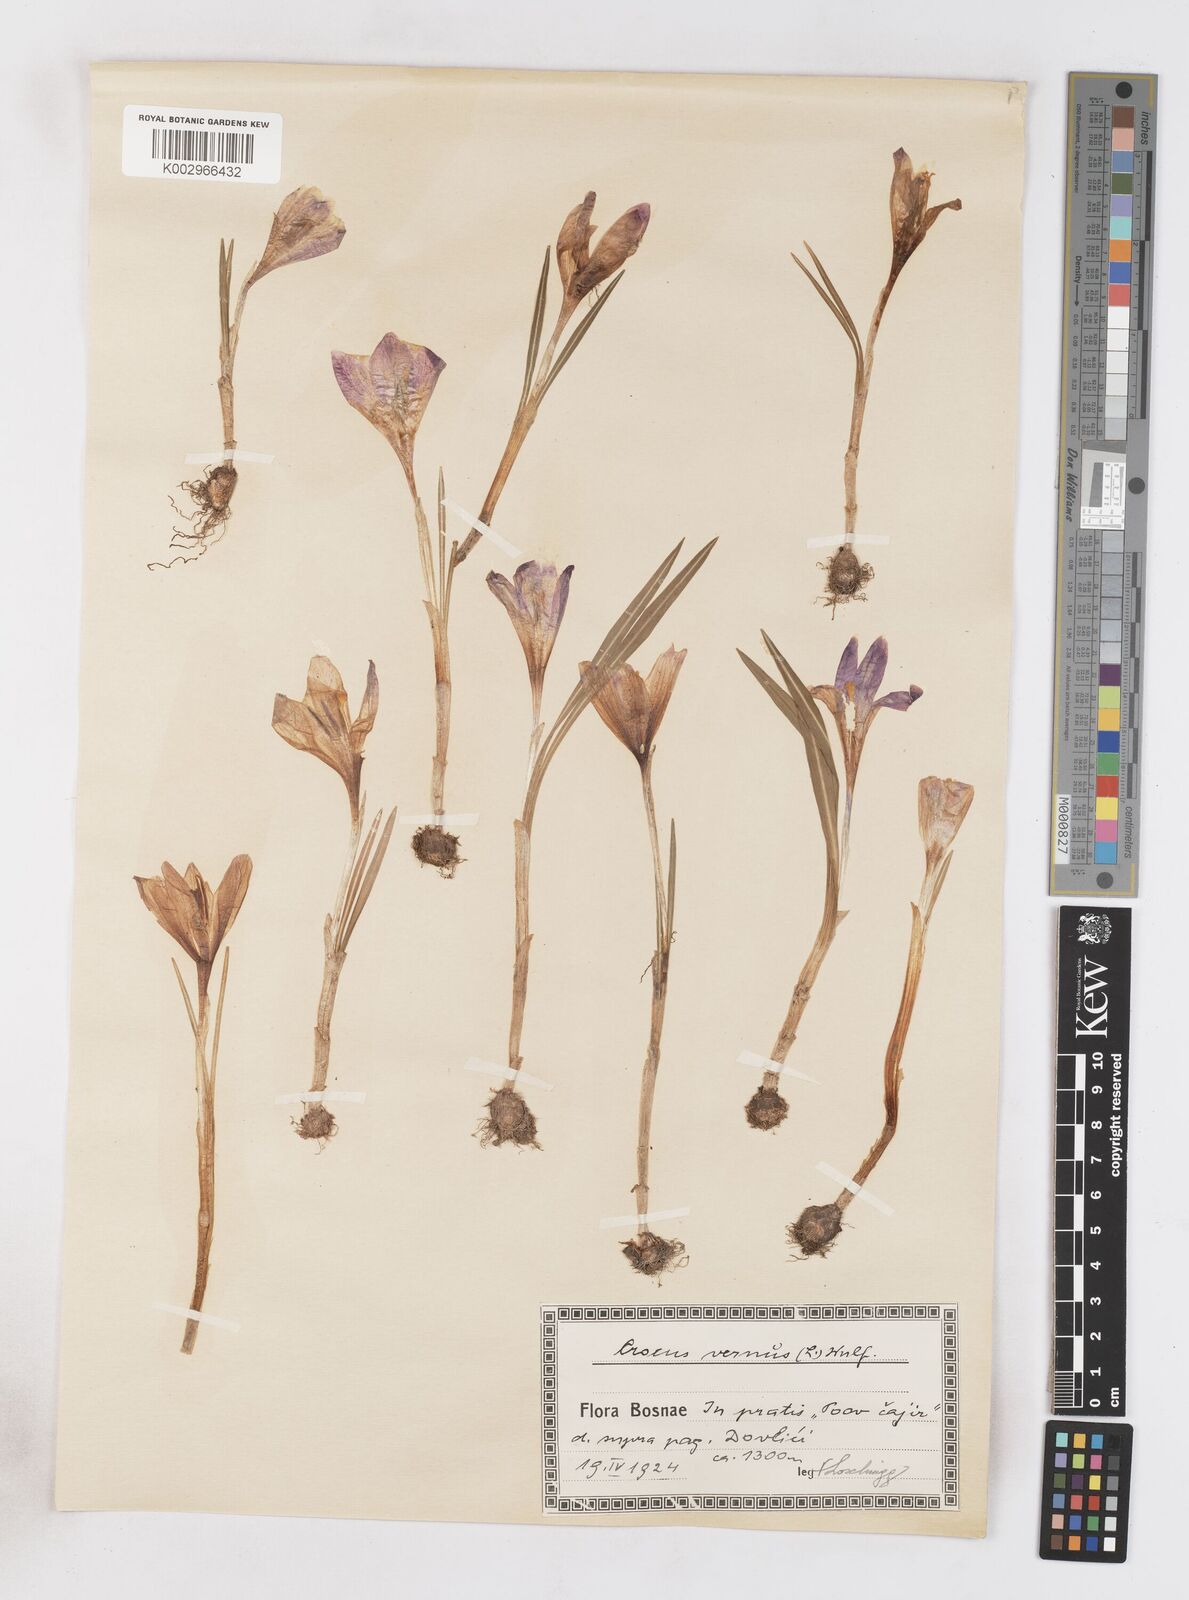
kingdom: Plantae
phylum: Tracheophyta
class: Liliopsida
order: Asparagales
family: Iridaceae
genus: Crocus
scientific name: Crocus vernus
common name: Spring crocus
